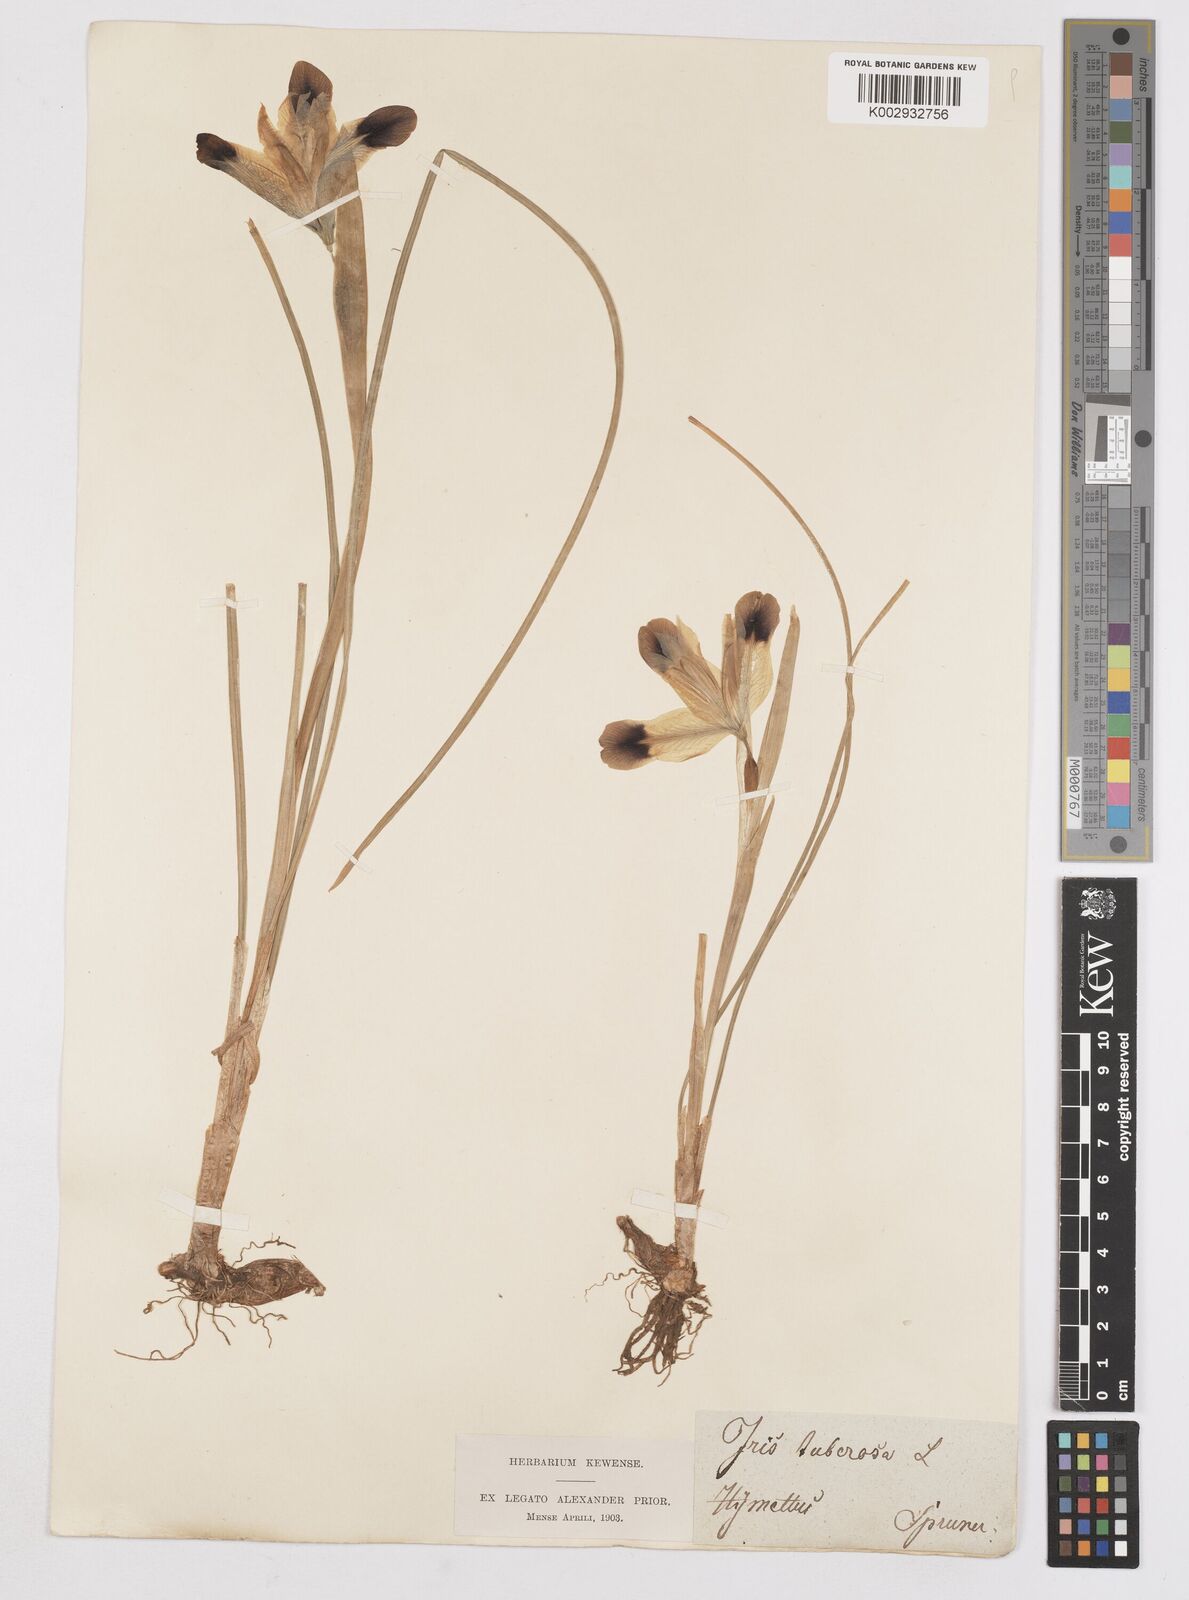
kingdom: Plantae
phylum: Tracheophyta
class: Liliopsida
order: Asparagales
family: Iridaceae
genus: Iris
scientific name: Iris tuberosa
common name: Snake's-head iris
